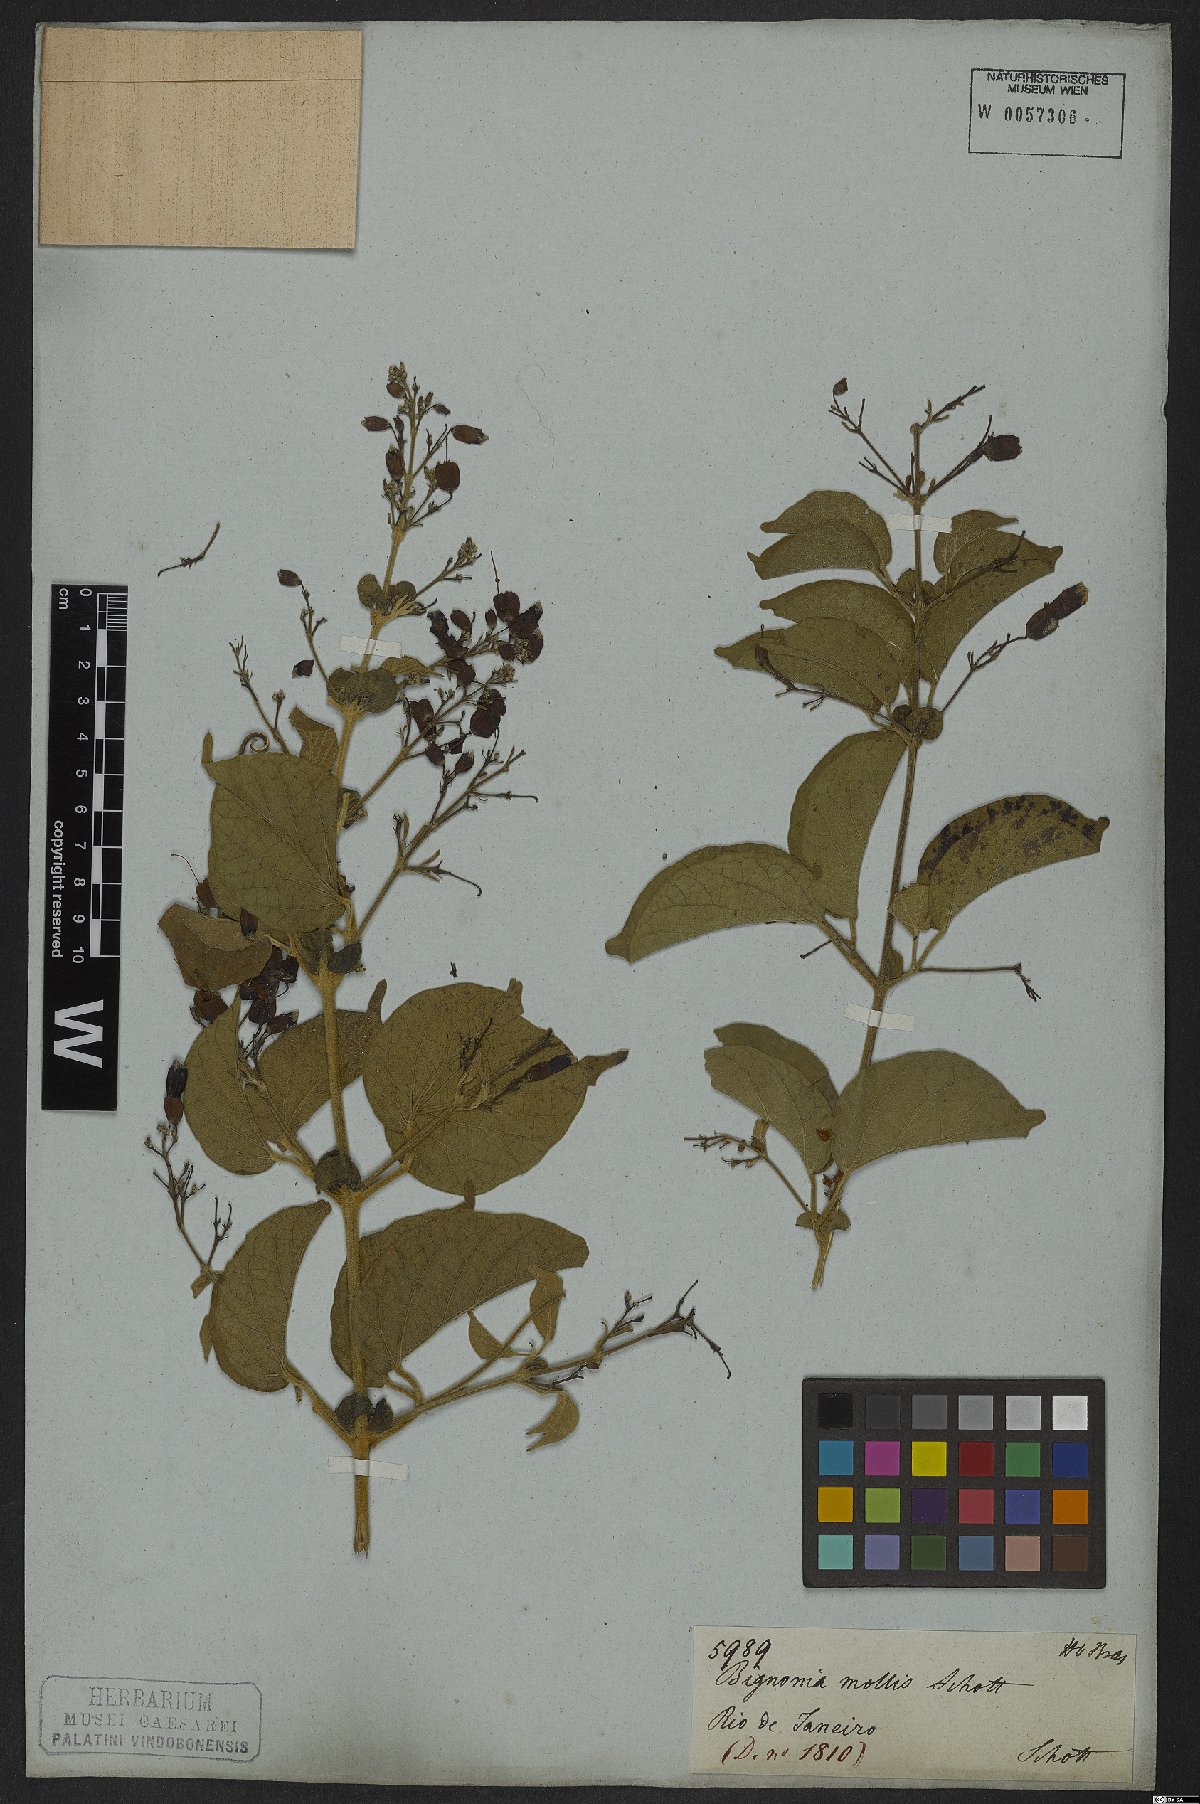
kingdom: Plantae
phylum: Tracheophyta
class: Magnoliopsida
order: Lamiales
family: Bignoniaceae
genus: Fridericia
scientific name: Fridericia mollis
